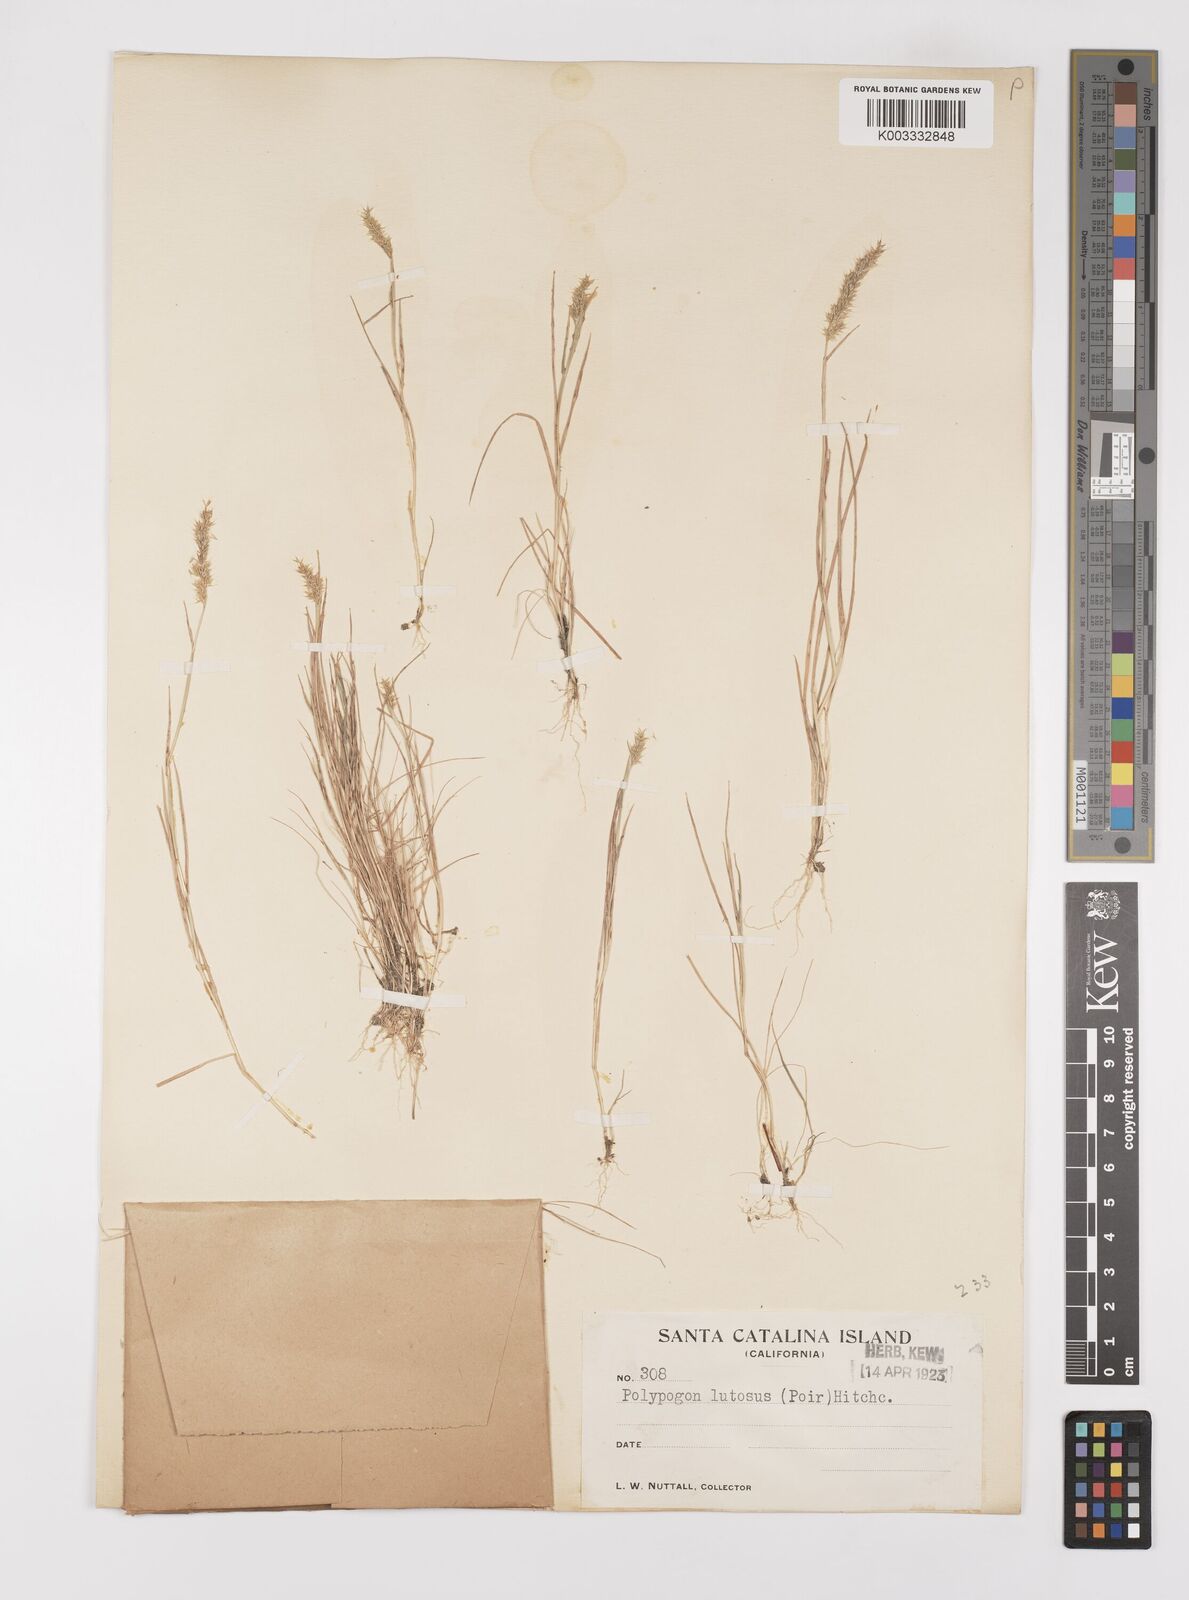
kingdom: Plantae
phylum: Tracheophyta
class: Liliopsida
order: Poales
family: Poaceae
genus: Polypogon
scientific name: Polypogon interruptus
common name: Ditch polypogon
